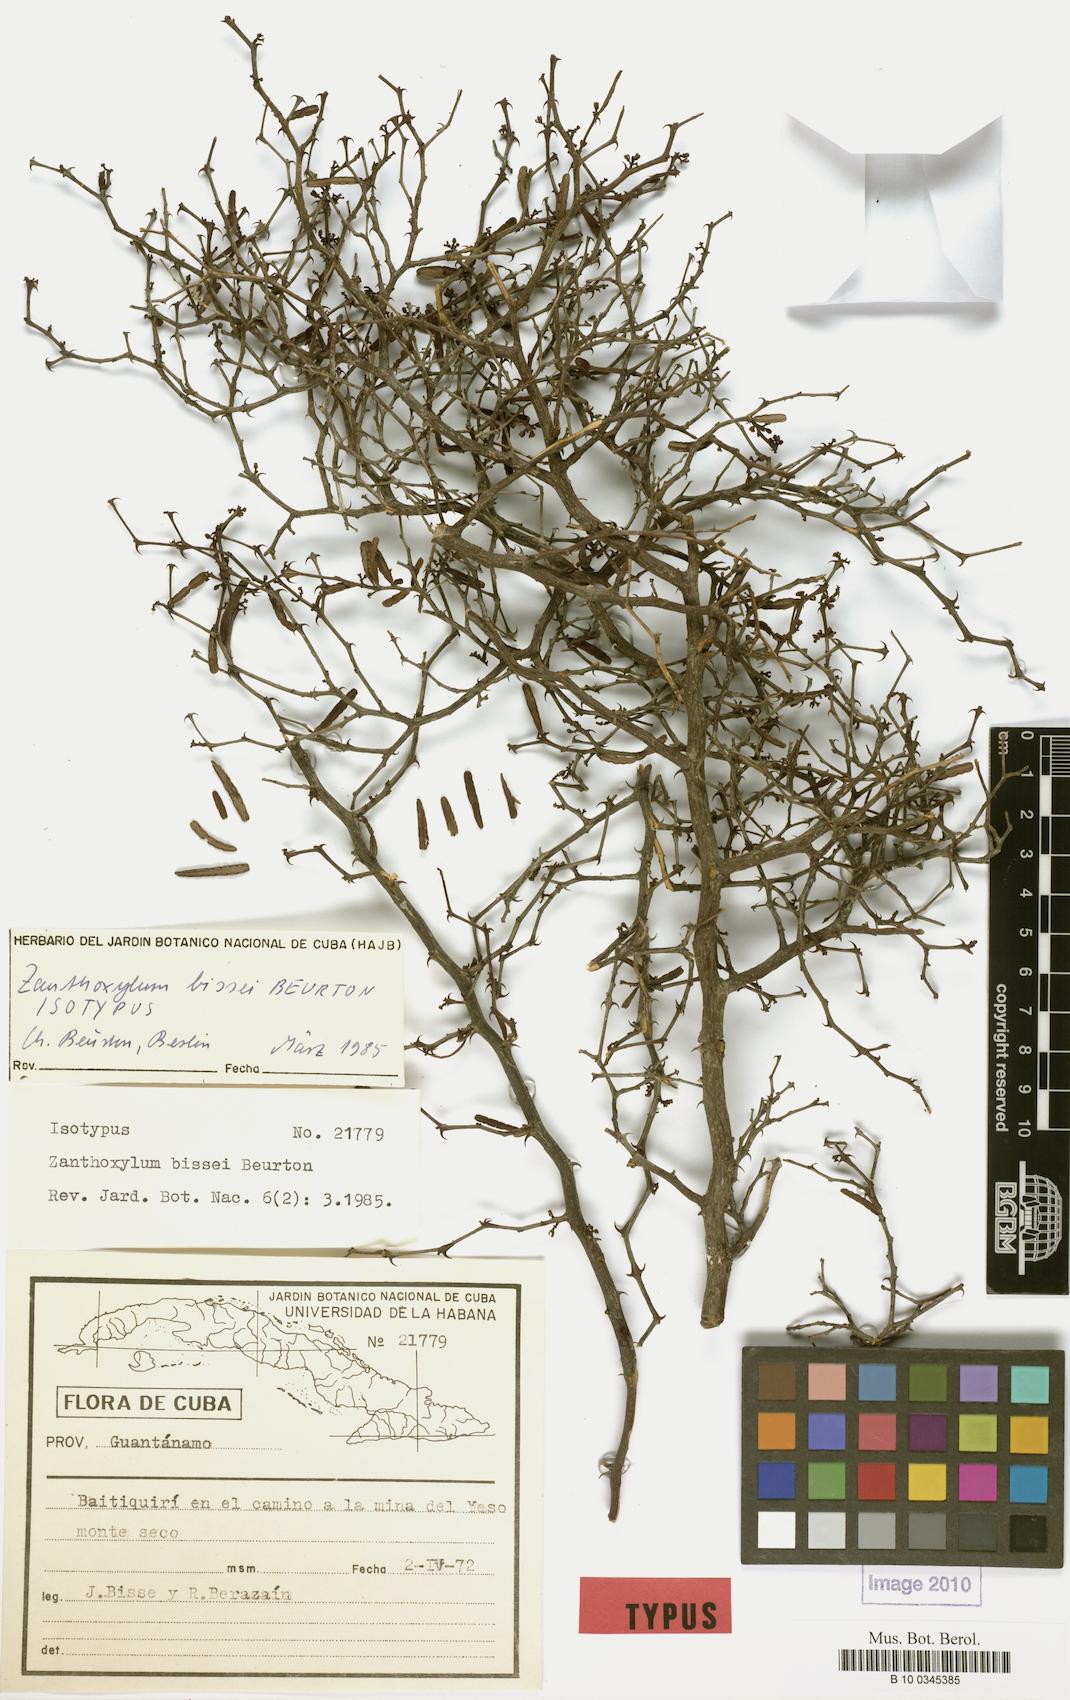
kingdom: Plantae
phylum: Tracheophyta
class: Magnoliopsida
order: Sapindales
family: Rutaceae
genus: Zanthoxylum
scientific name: Zanthoxylum bissei
